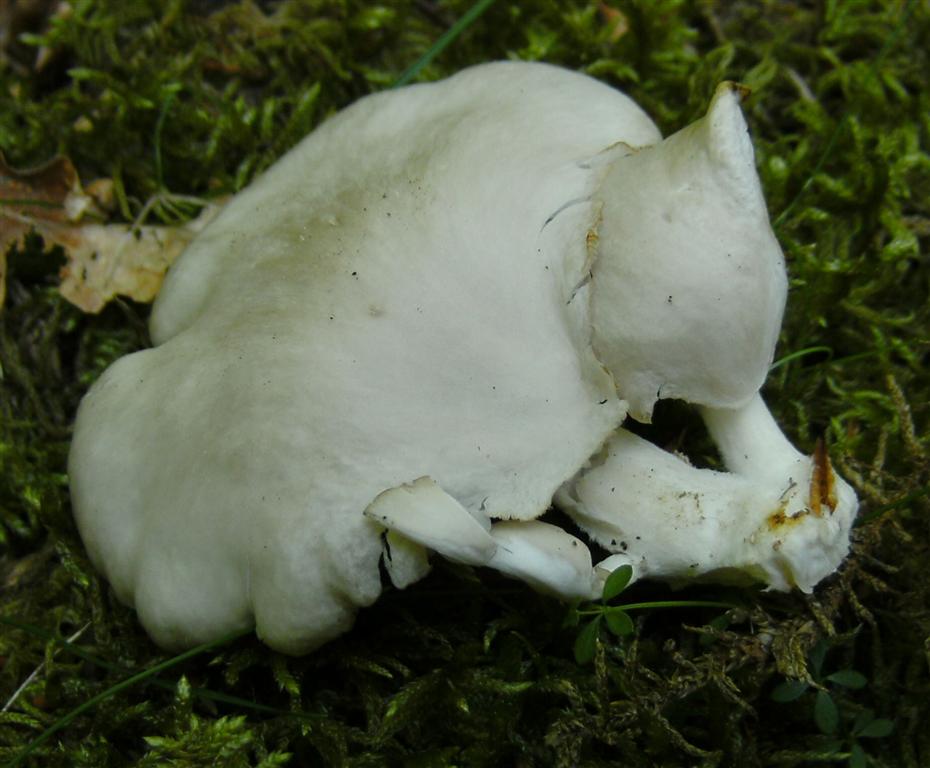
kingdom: Fungi
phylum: Basidiomycota
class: Agaricomycetes
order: Agaricales
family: Pleurotaceae
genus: Pleurotus
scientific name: Pleurotus pulmonarius
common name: sommer-østershat
